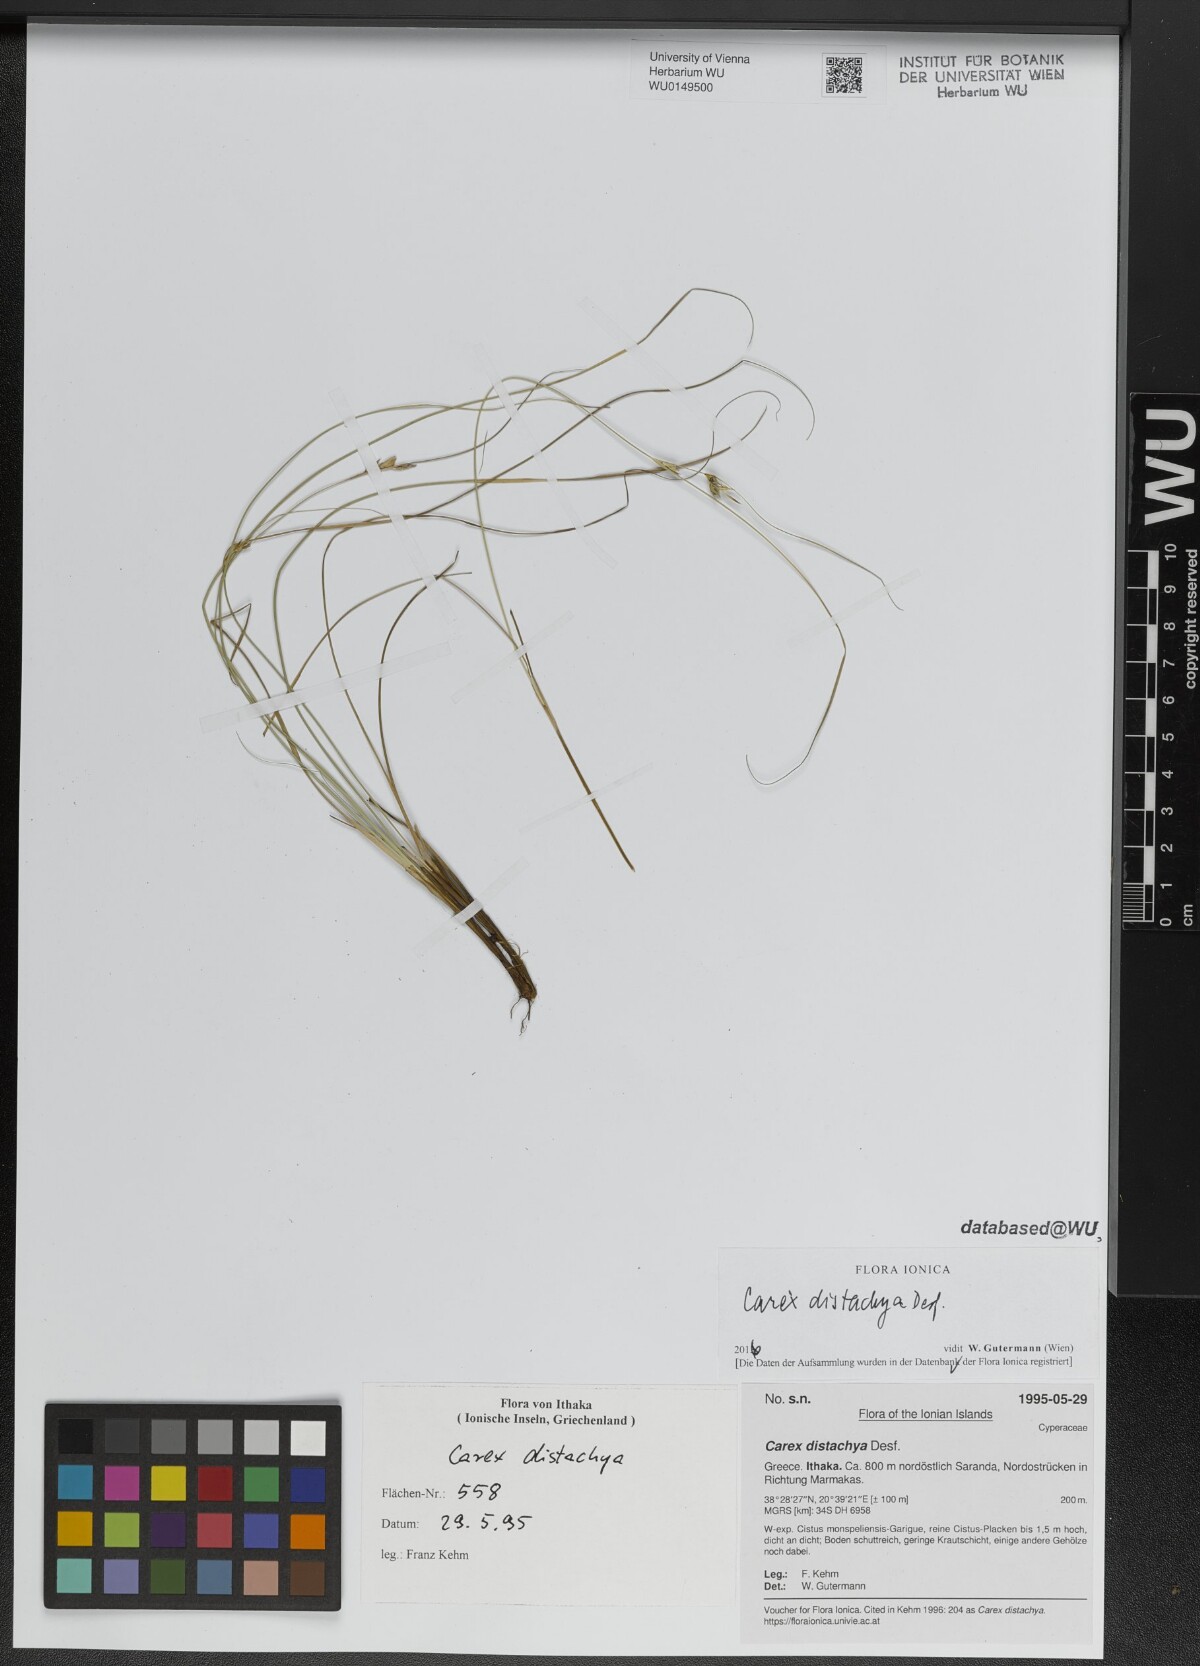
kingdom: Plantae
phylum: Tracheophyta
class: Liliopsida
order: Poales
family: Cyperaceae
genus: Carex
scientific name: Carex distachya
